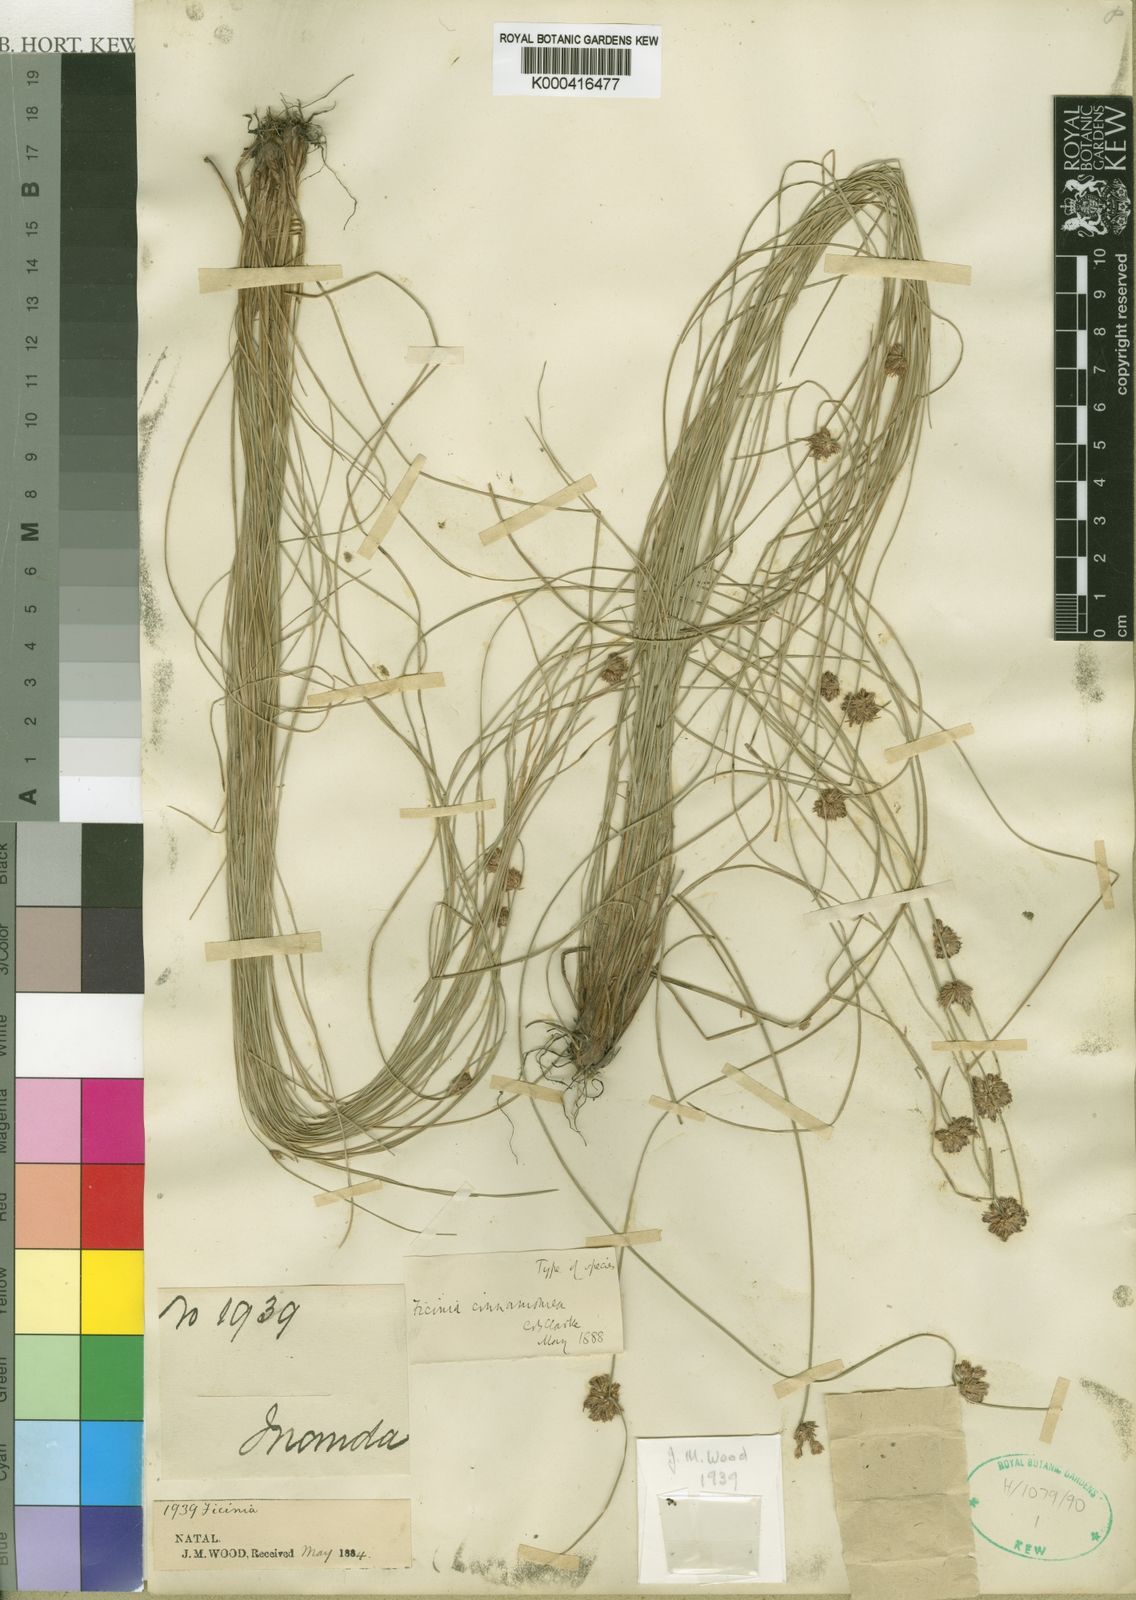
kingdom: Plantae
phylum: Tracheophyta
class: Liliopsida
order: Poales
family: Cyperaceae
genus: Ficinia
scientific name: Ficinia cinnamomea
